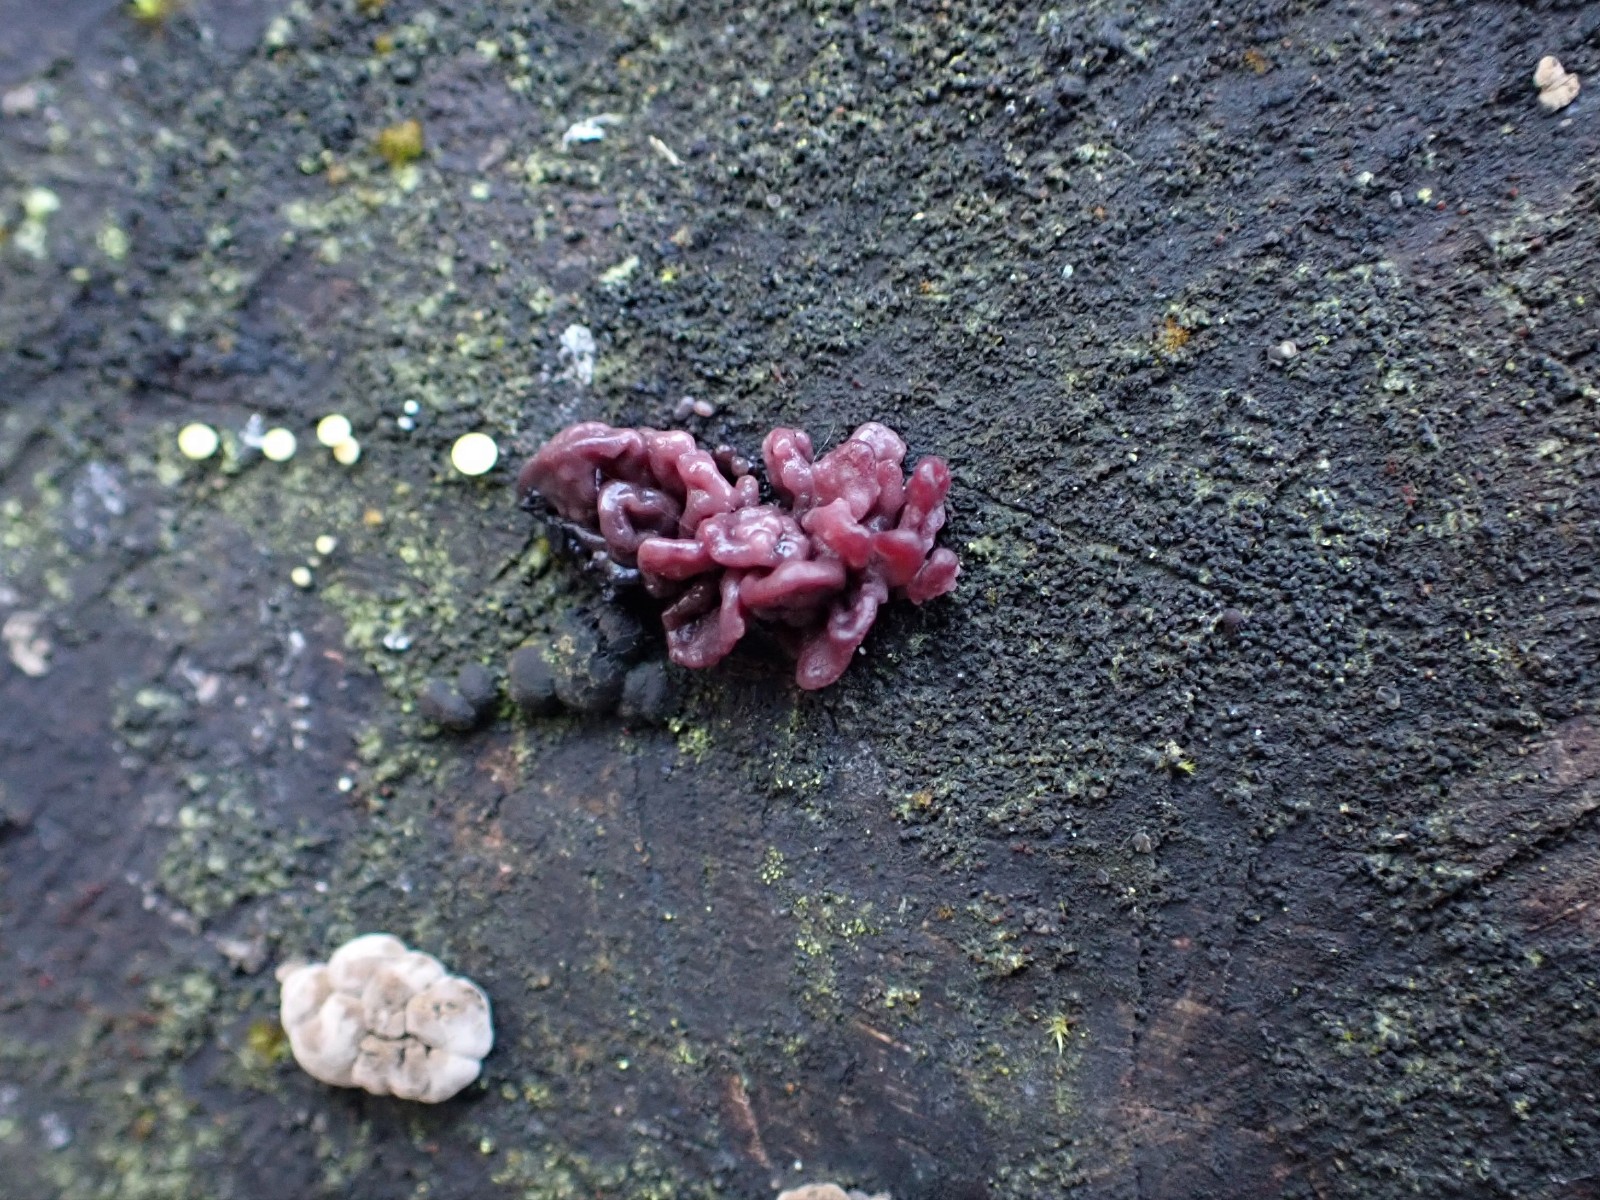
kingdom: Fungi
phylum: Ascomycota
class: Leotiomycetes
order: Helotiales
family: Gelatinodiscaceae
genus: Ascocoryne
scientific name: Ascocoryne sarcoides
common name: rødlilla sejskive
